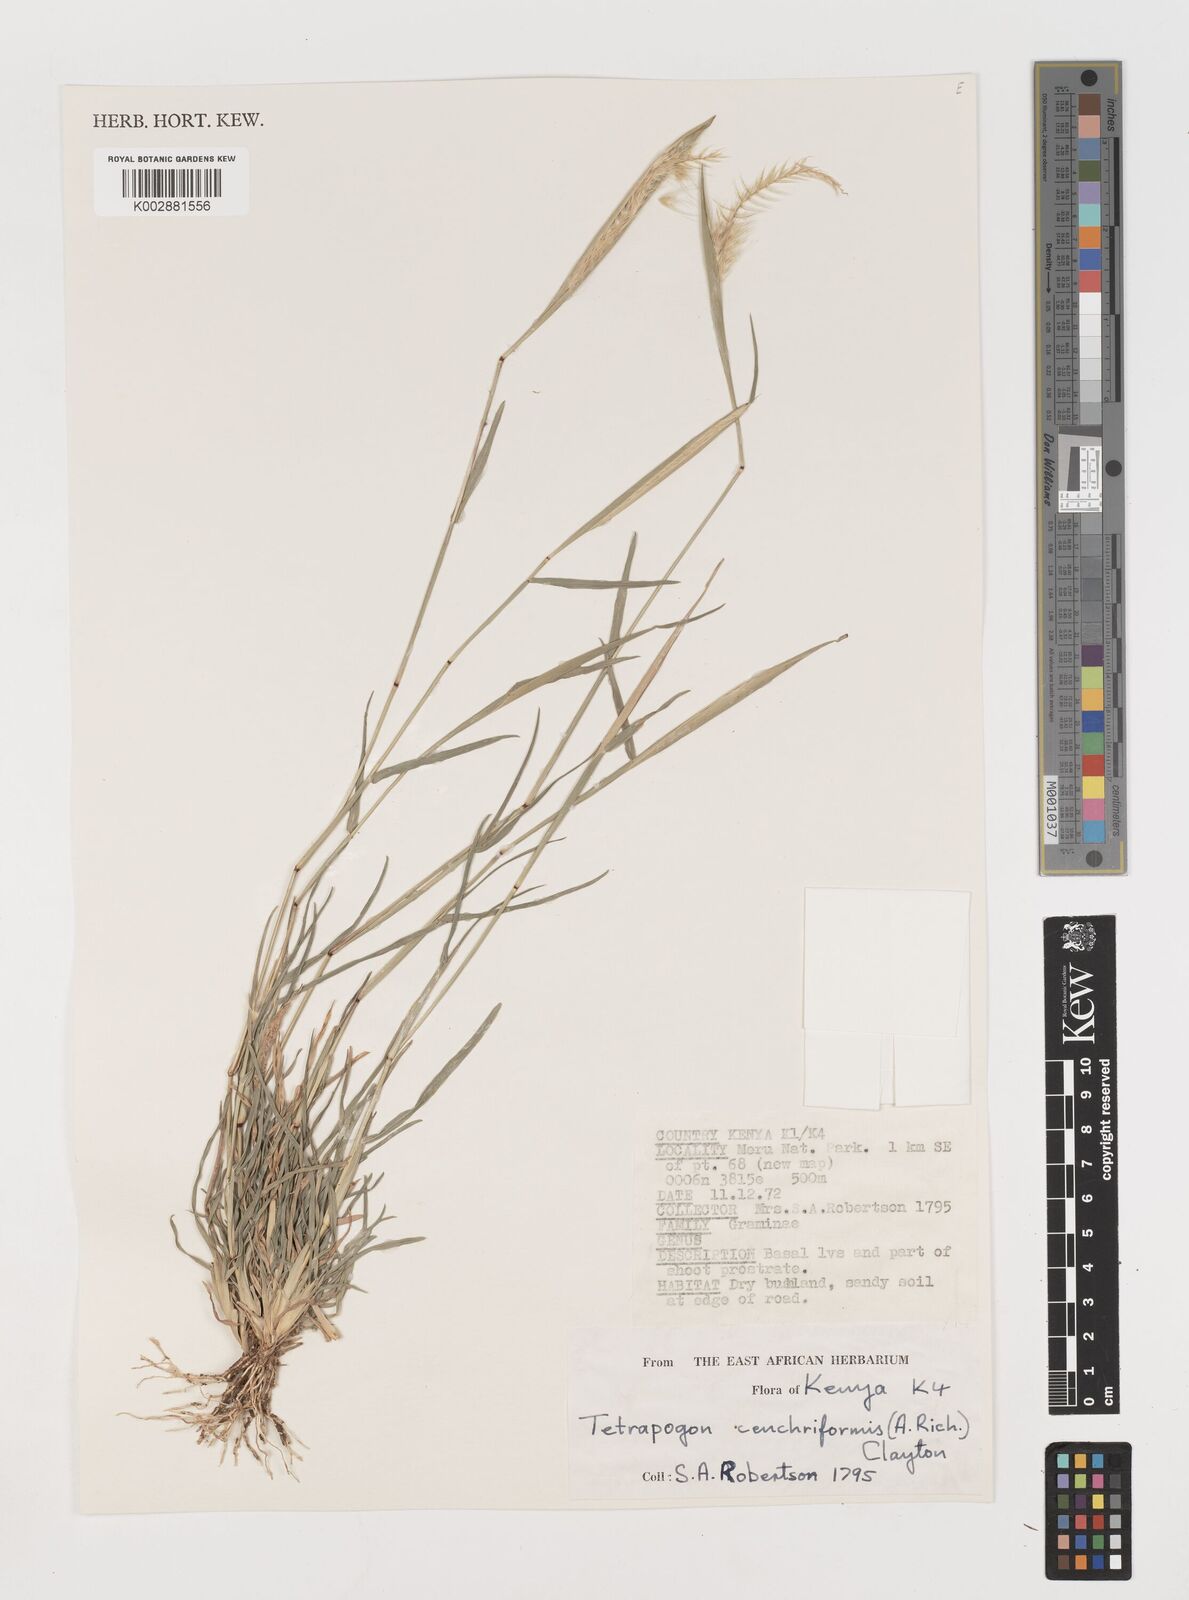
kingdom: Plantae
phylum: Tracheophyta
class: Liliopsida
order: Poales
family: Poaceae
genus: Tetrapogon
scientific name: Tetrapogon cenchriformis
